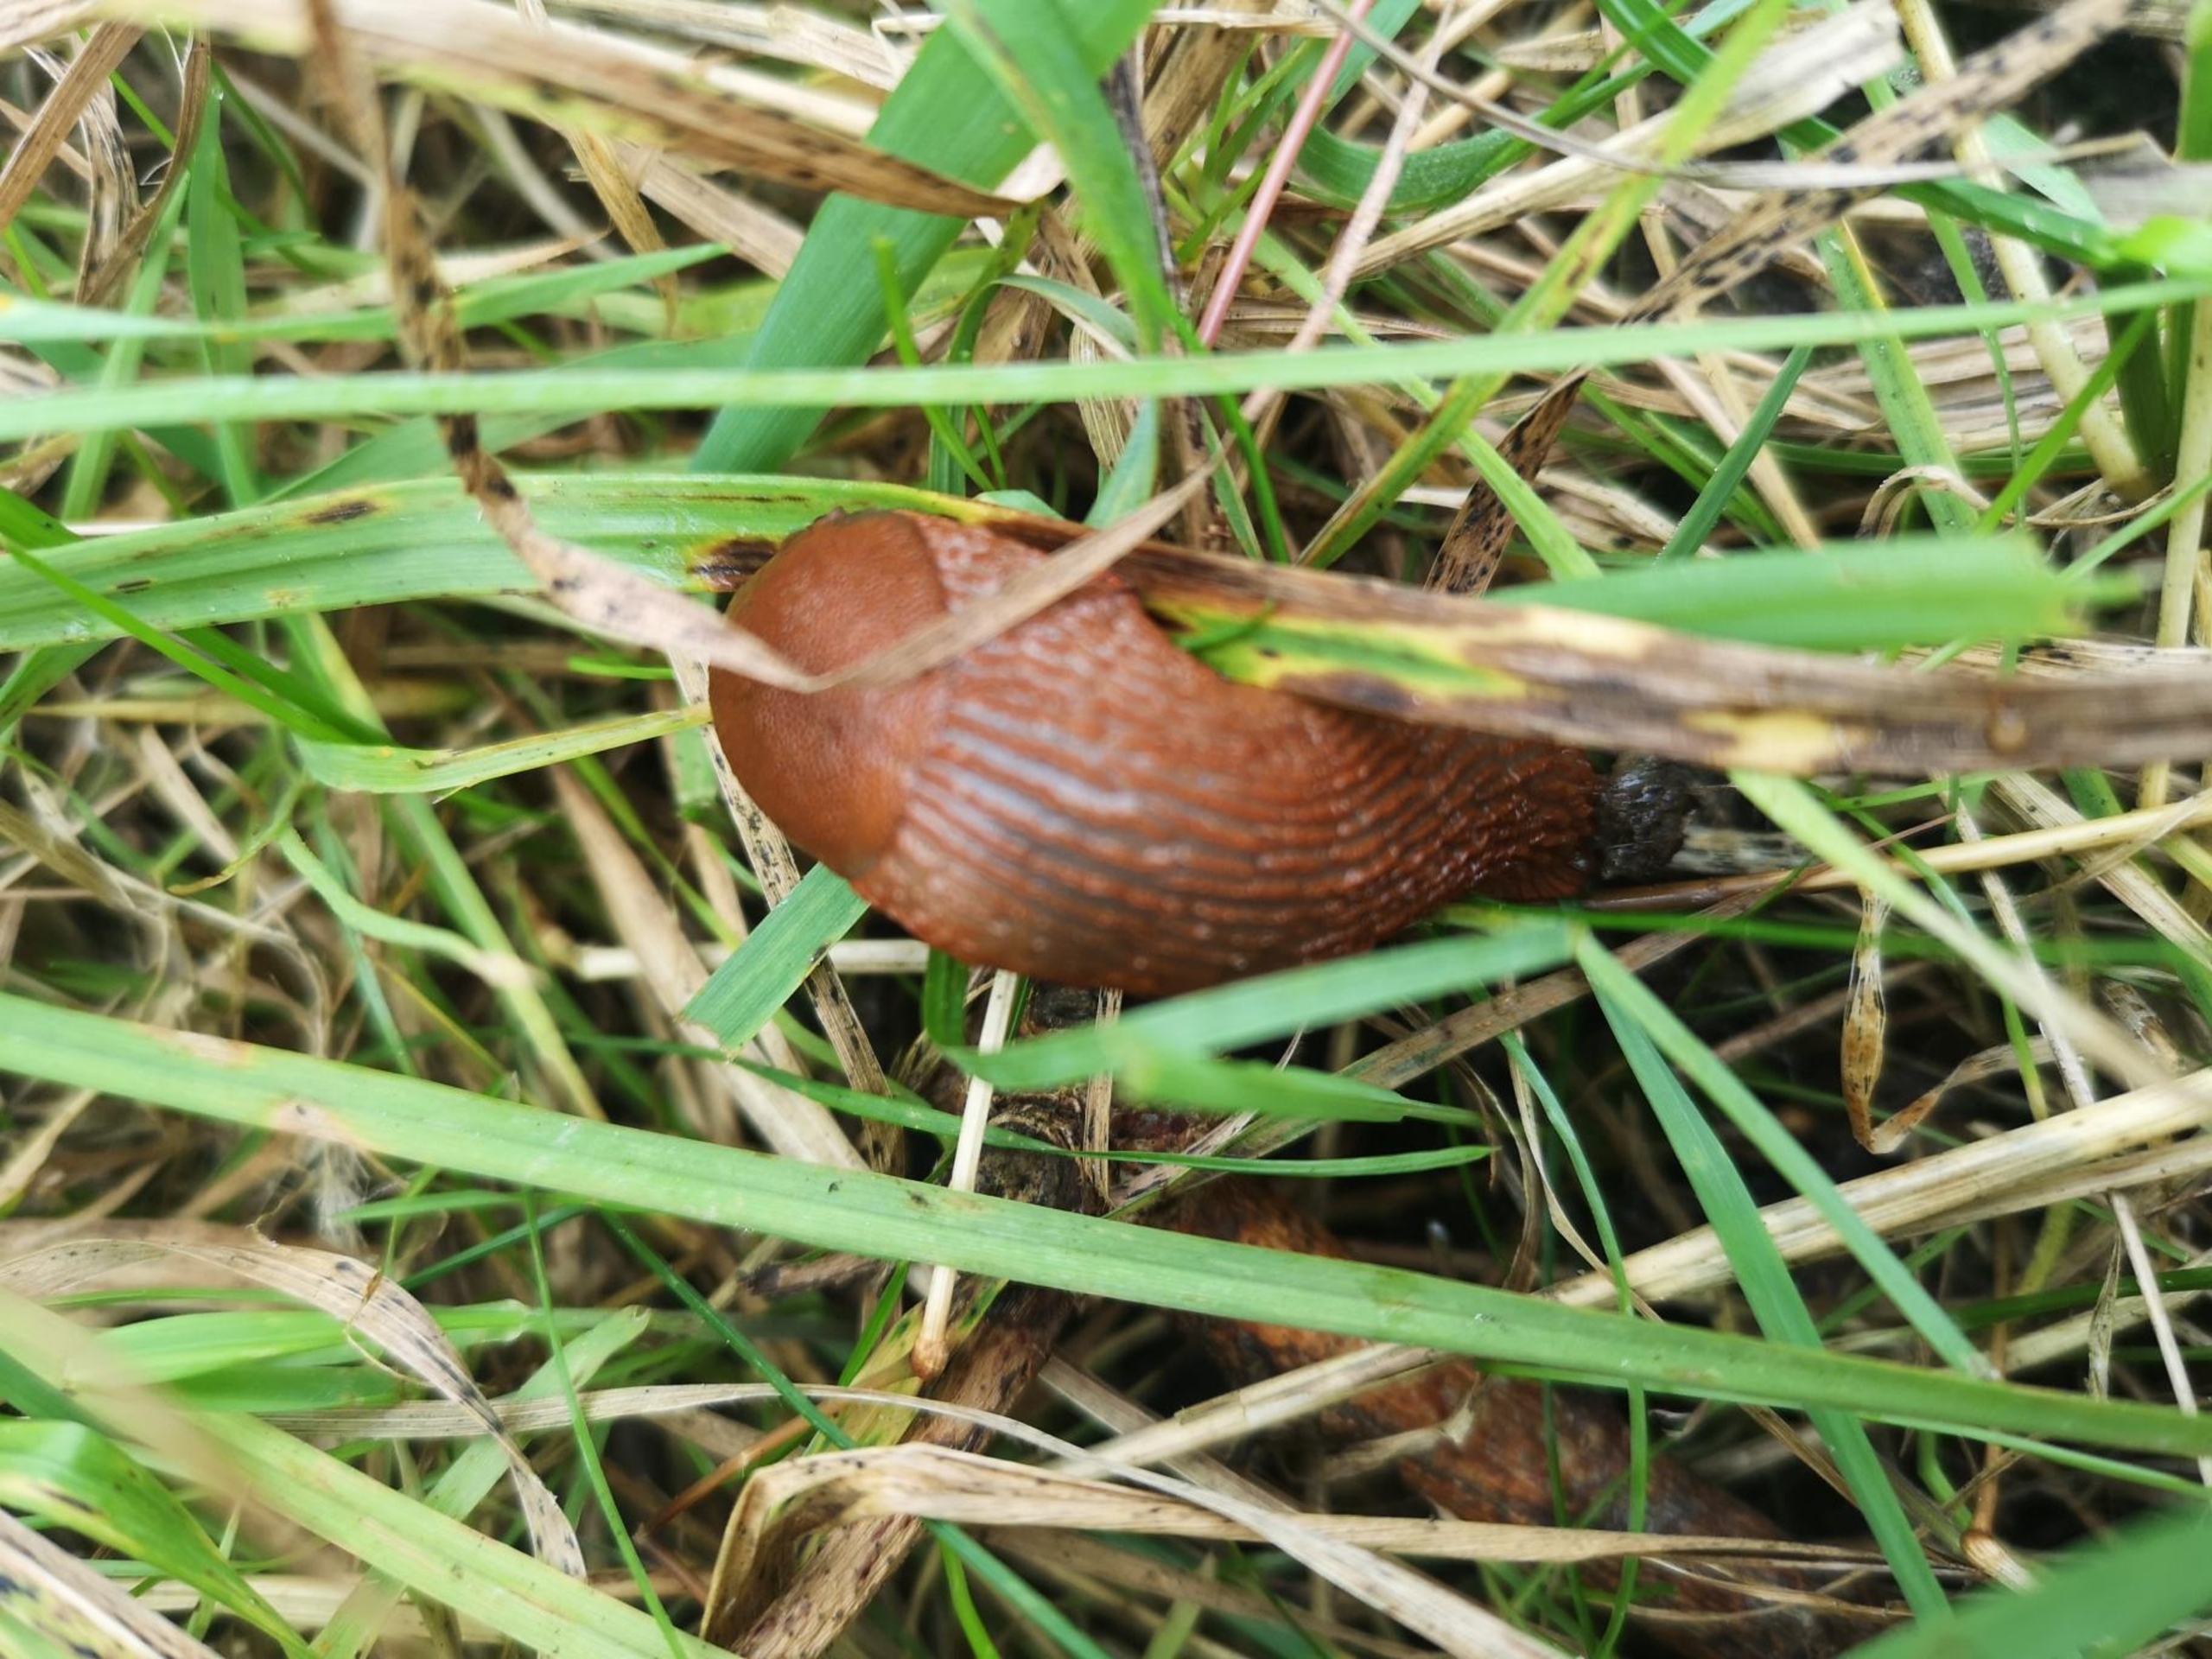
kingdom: Animalia
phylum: Mollusca
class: Gastropoda
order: Stylommatophora
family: Arionidae
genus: Arion
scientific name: Arion vulgaris
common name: Iberisk skovsnegl
